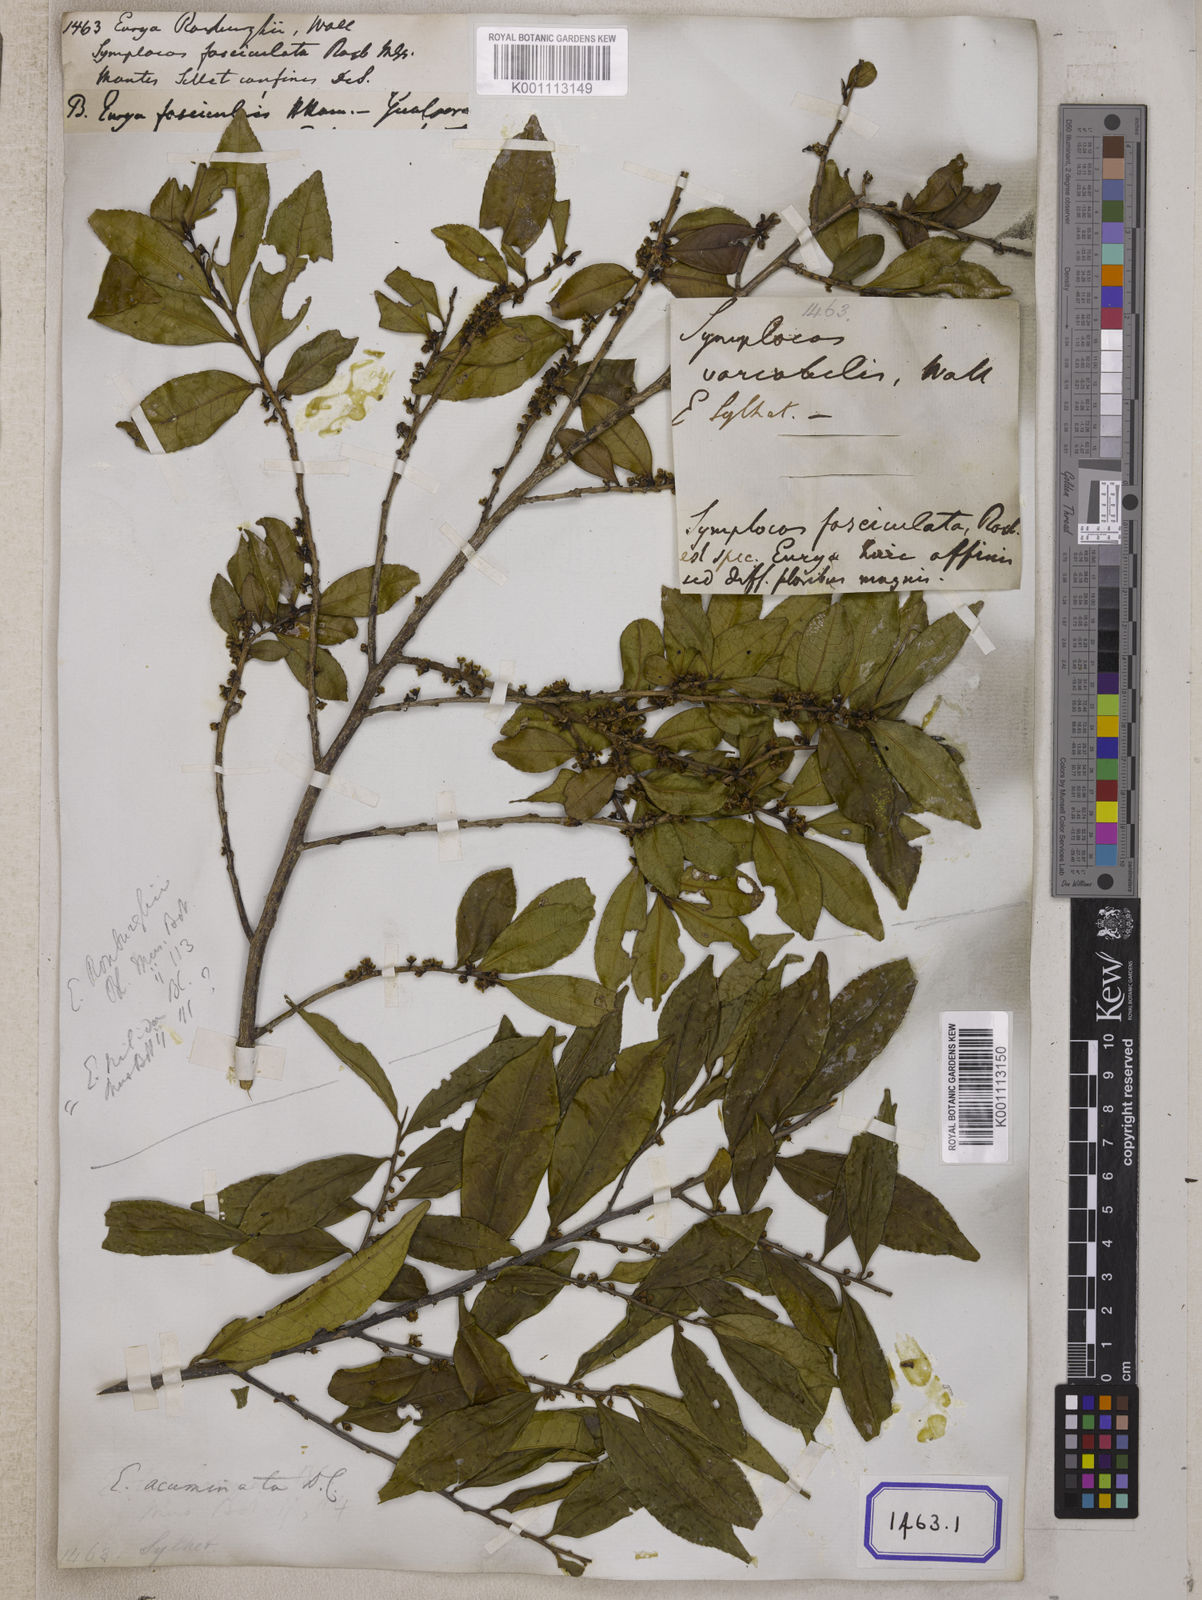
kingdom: Plantae
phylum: Tracheophyta
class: Magnoliopsida
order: Ericales
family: Pentaphylacaceae
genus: Eurya
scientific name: Eurya nitida
